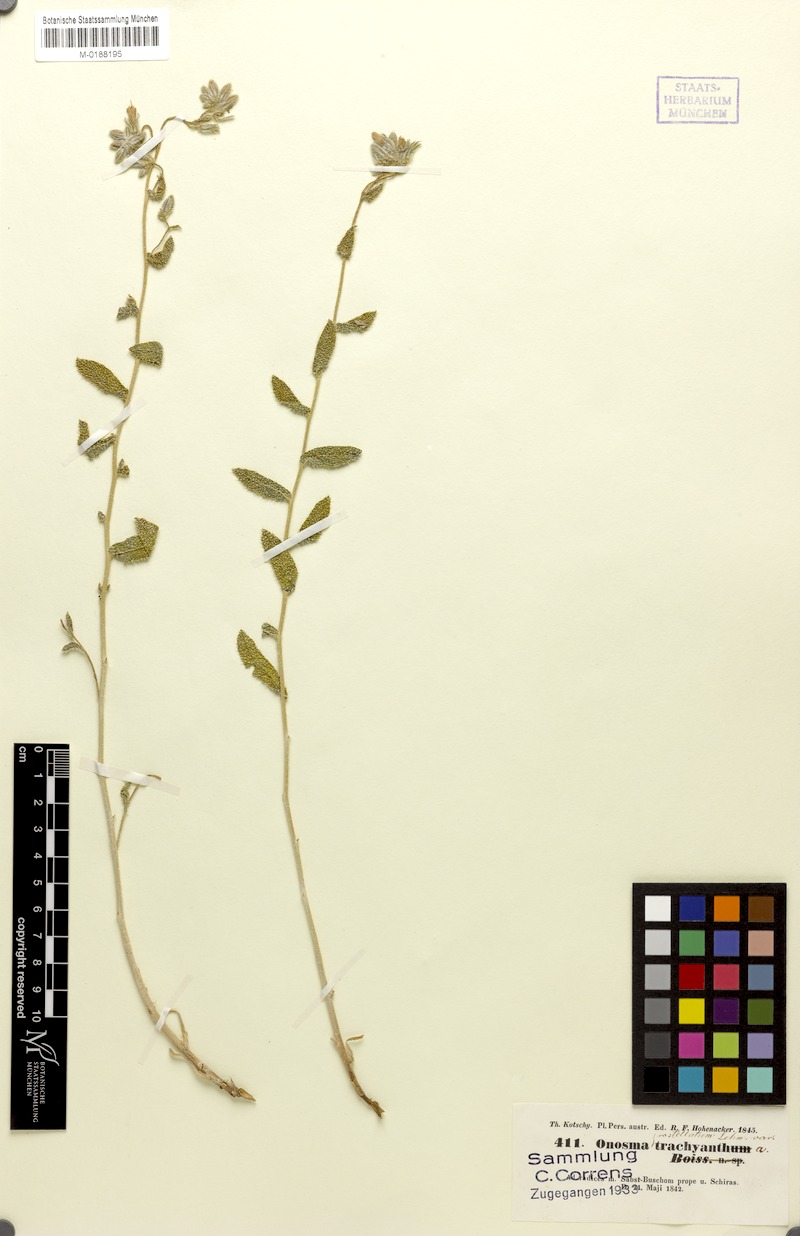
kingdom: Plantae
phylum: Tracheophyta
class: Magnoliopsida
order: Boraginales
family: Boraginaceae
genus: Onosma
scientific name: Onosma kotschyi
